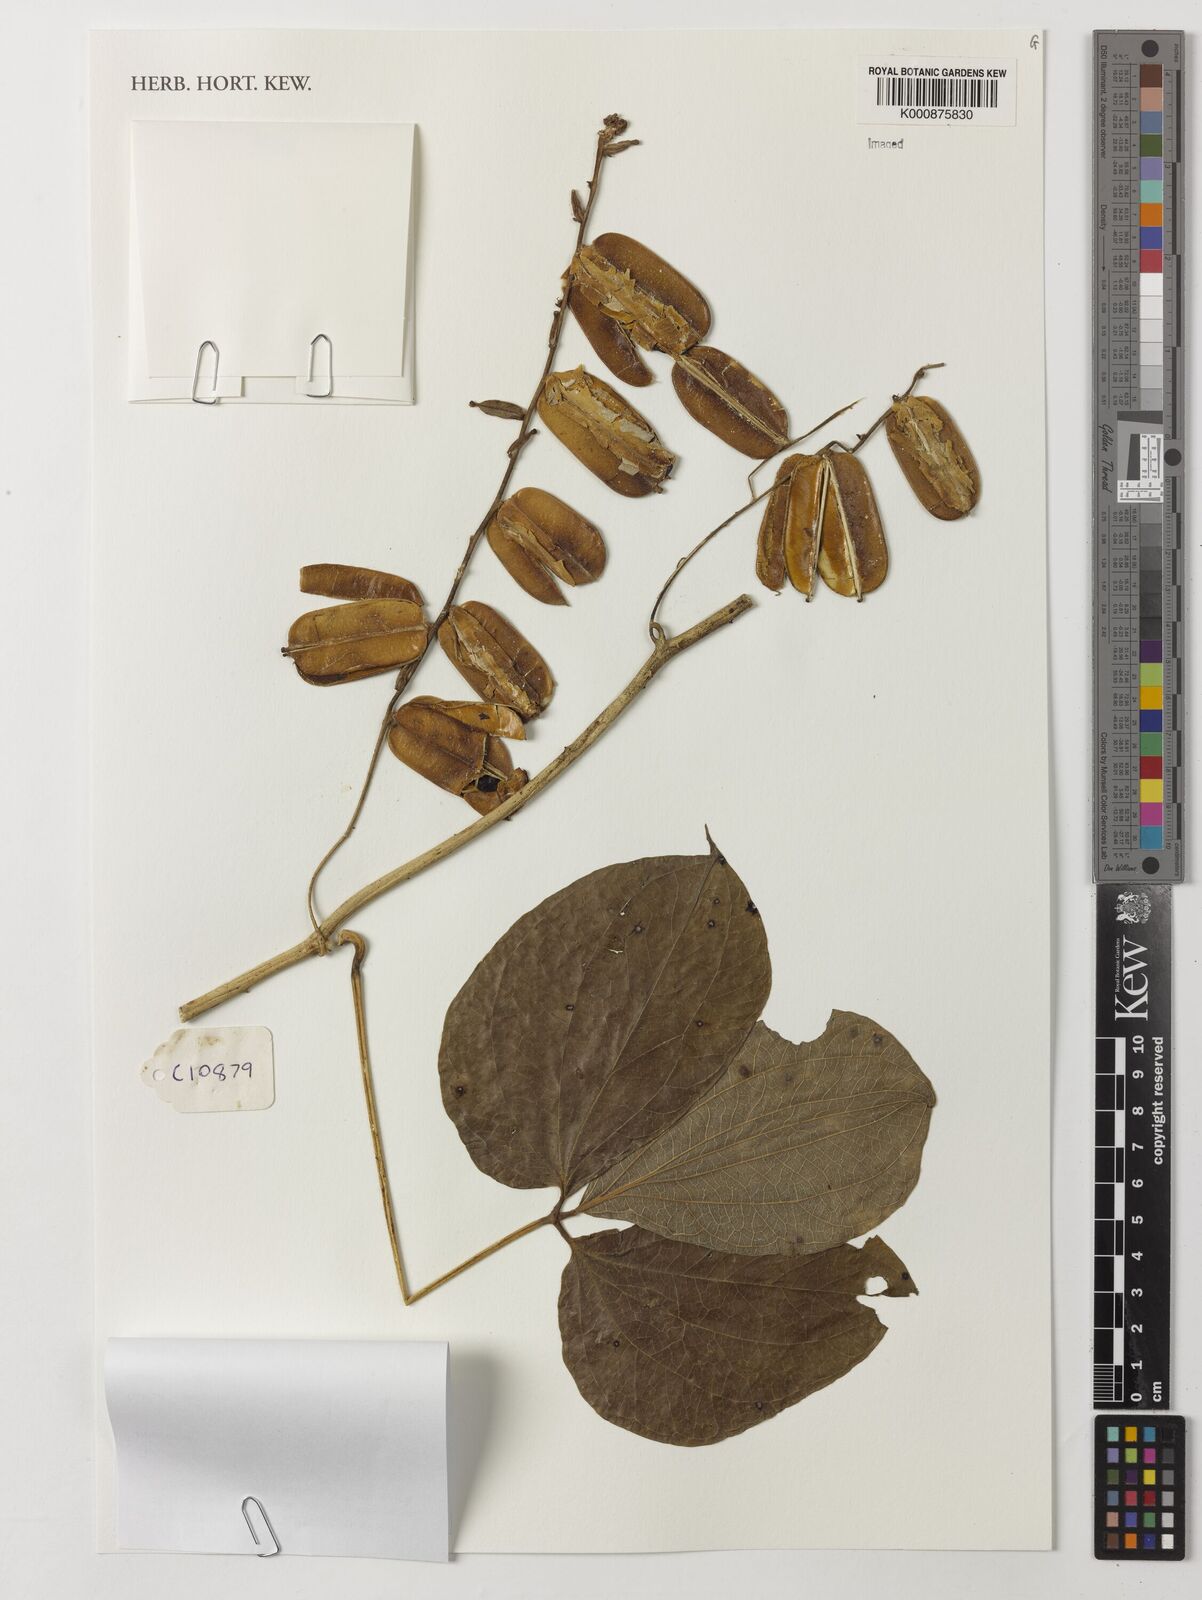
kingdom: Plantae
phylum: Tracheophyta
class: Liliopsida
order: Dioscoreales
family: Dioscoreaceae
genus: Dioscorea
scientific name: Dioscorea dumetorum
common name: African bitter yam
